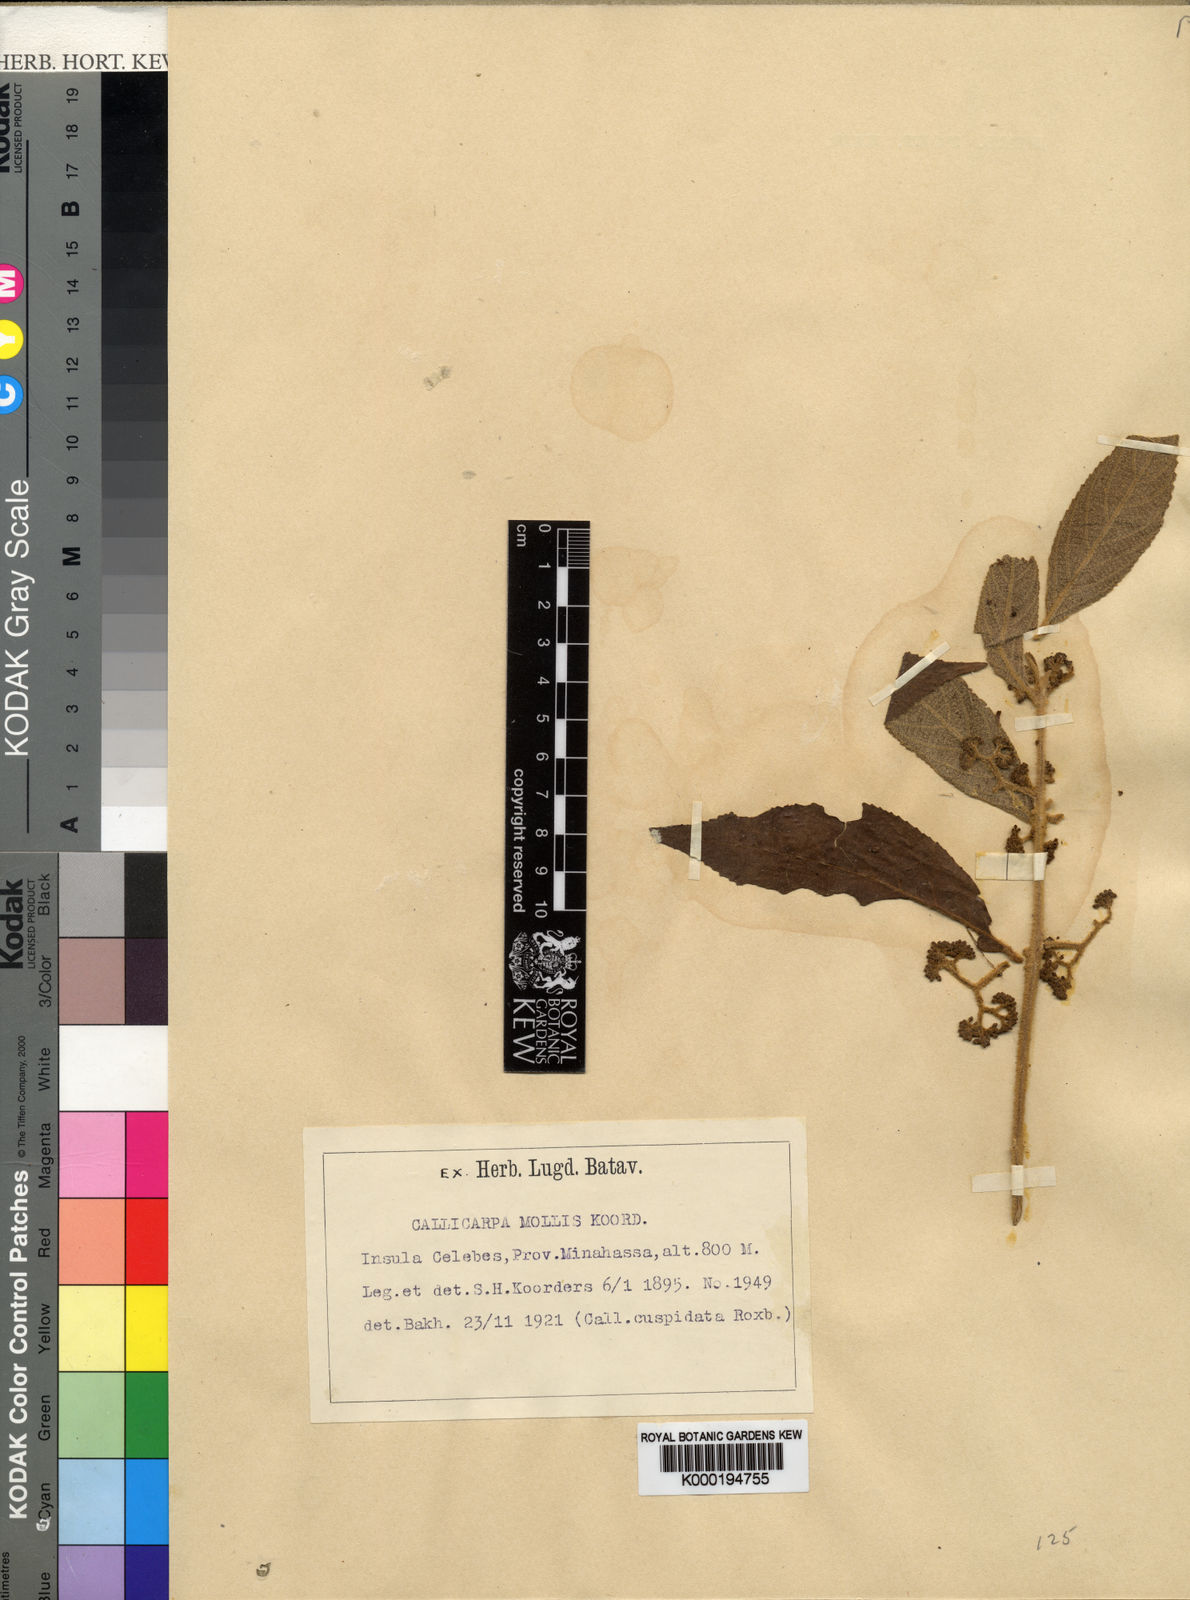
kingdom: Plantae
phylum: Tracheophyta
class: Magnoliopsida
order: Lamiales
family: Lamiaceae
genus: Callicarpa
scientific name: Callicarpa caudata
